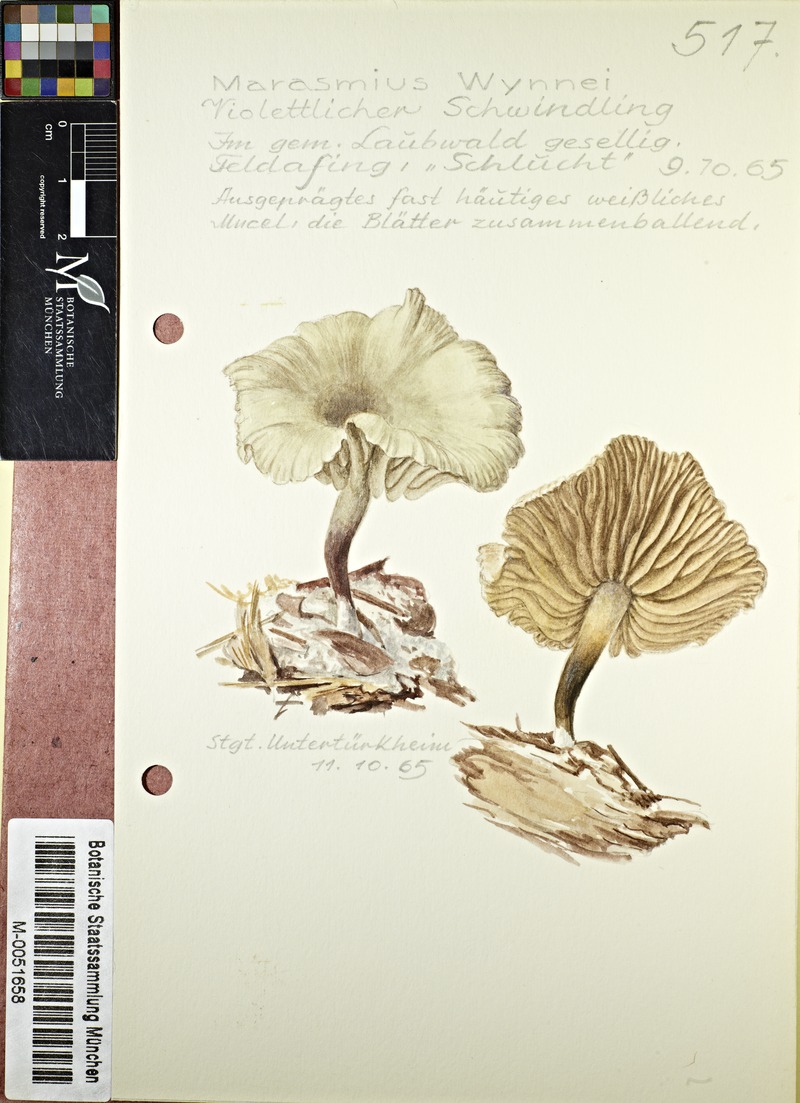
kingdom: Fungi
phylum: Basidiomycota
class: Agaricomycetes
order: Agaricales
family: Marasmiaceae
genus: Marasmius
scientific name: Marasmius wynneae
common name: Pearly parachute
